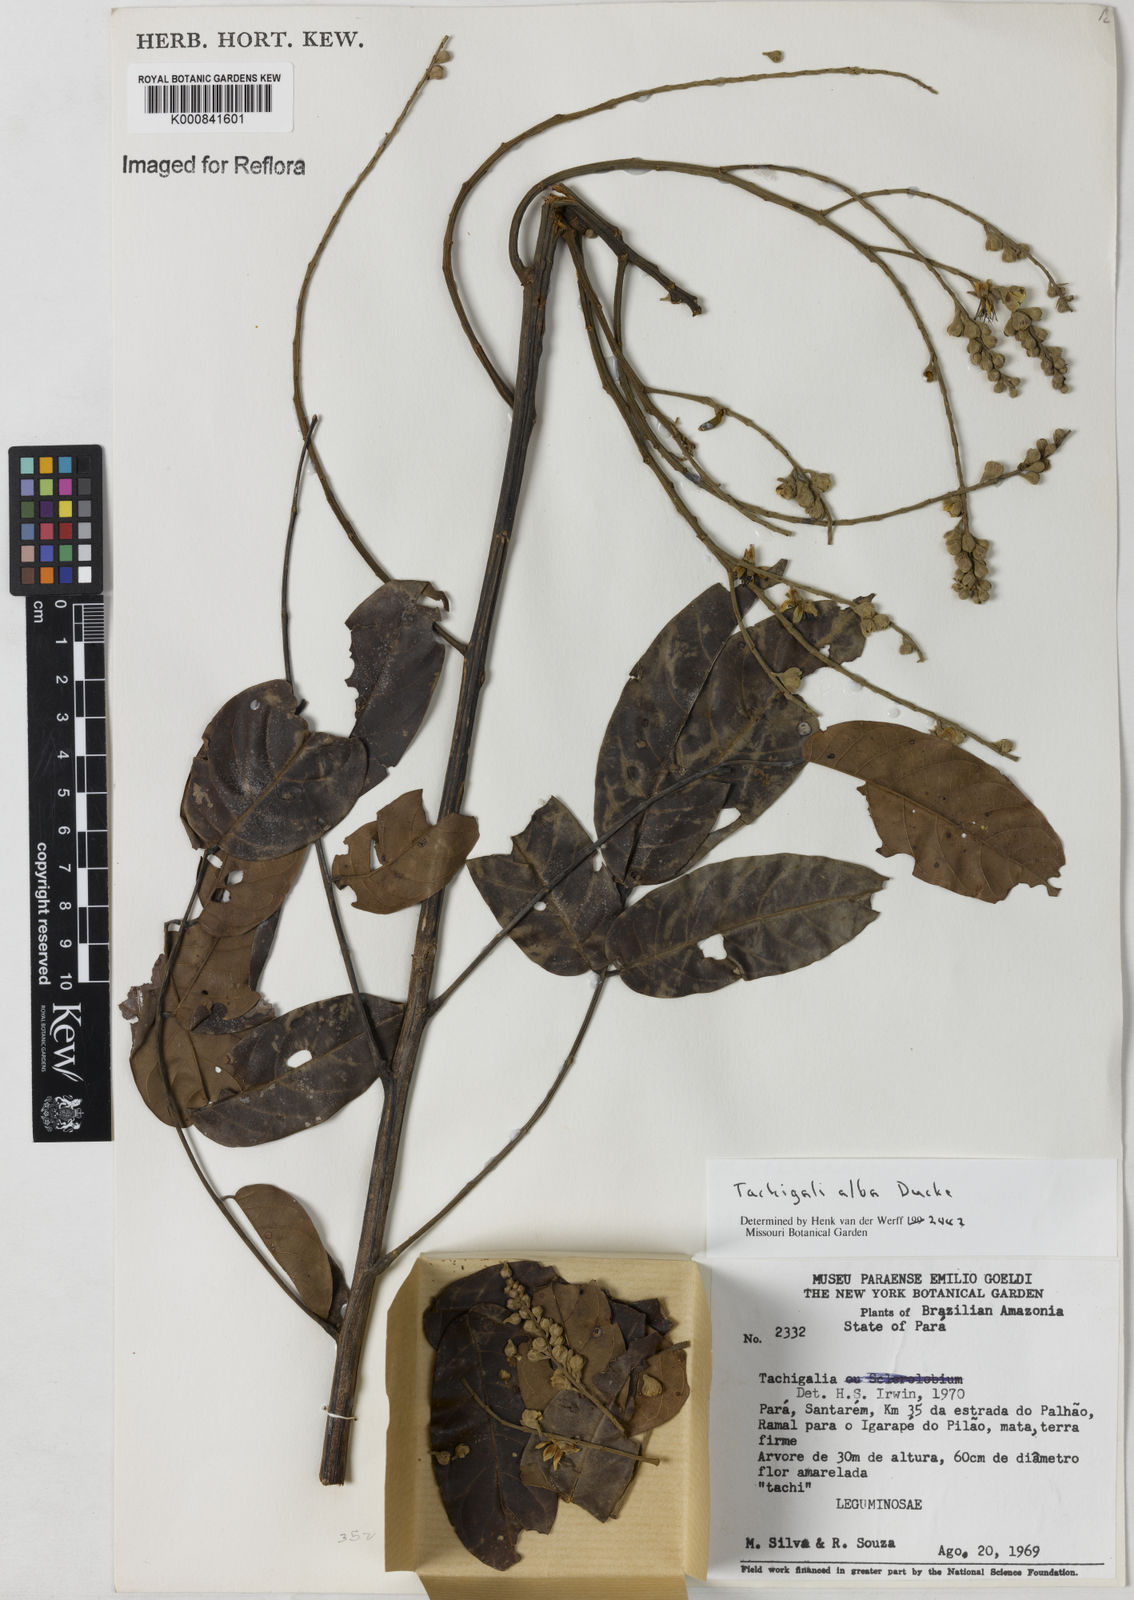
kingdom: Plantae
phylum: Tracheophyta
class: Magnoliopsida
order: Fabales
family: Fabaceae
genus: Tachigali
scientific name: Tachigali alba
